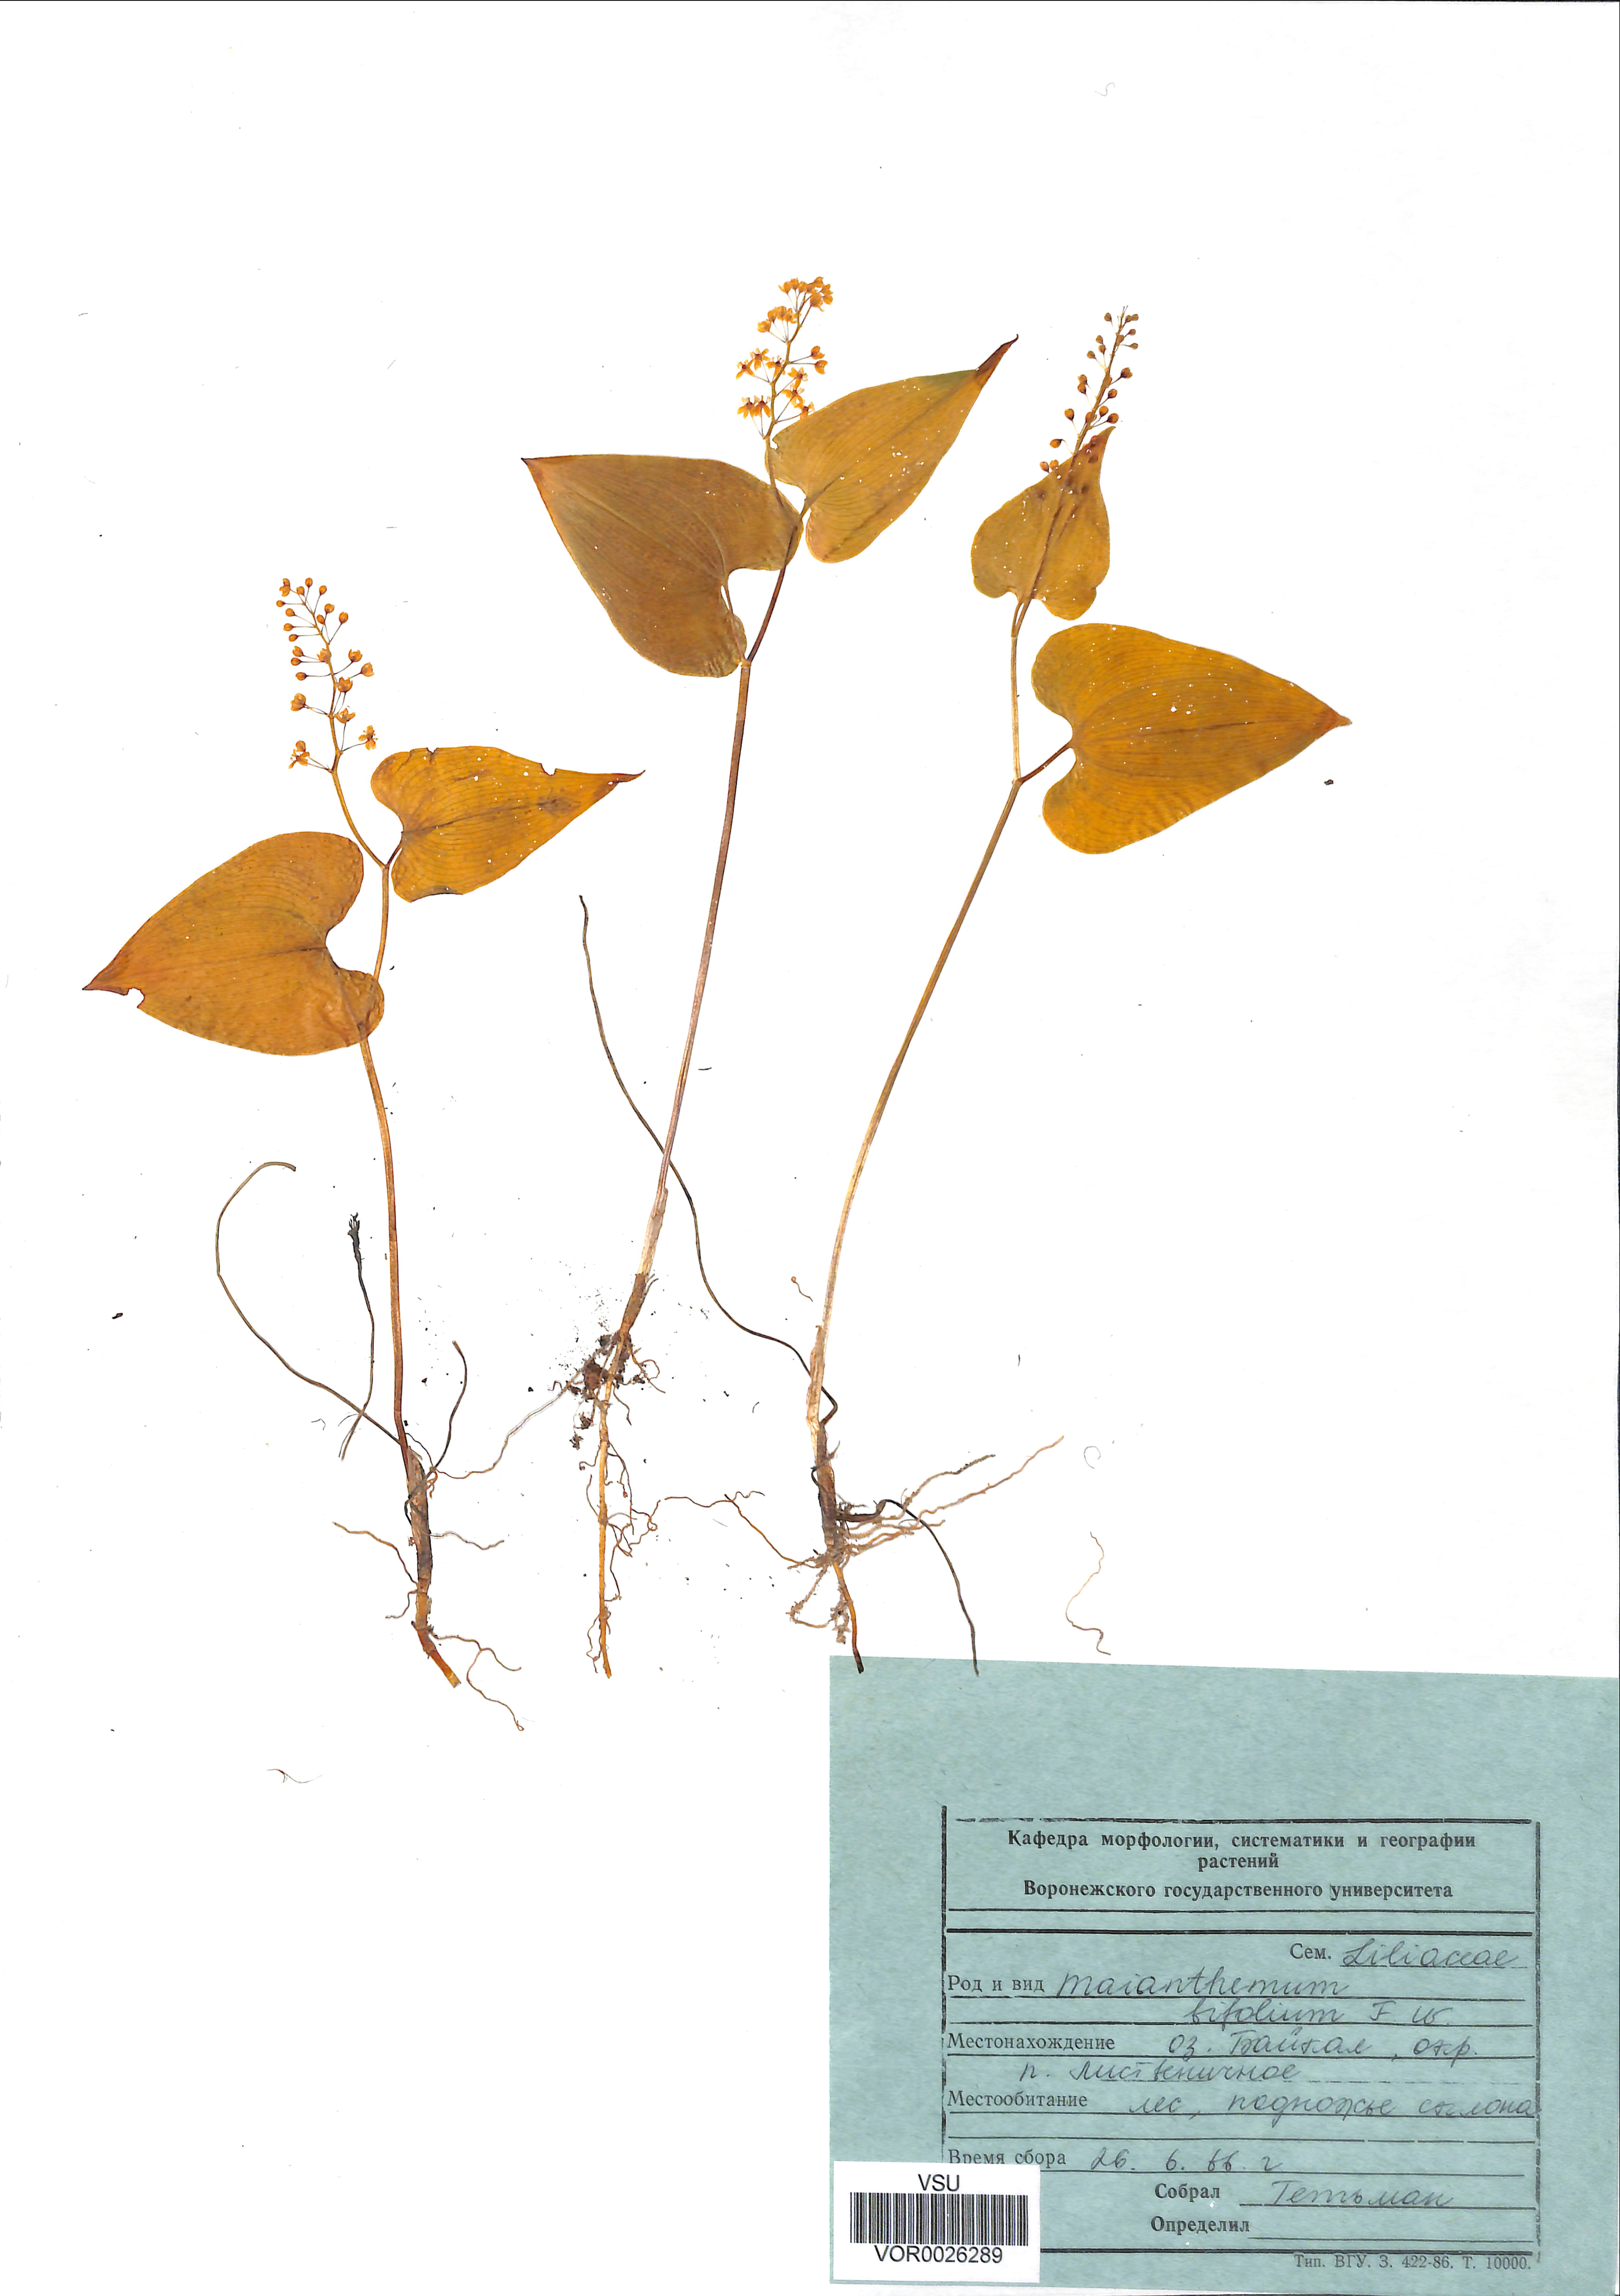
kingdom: Plantae
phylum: Tracheophyta
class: Liliopsida
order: Asparagales
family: Asparagaceae
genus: Maianthemum
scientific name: Maianthemum bifolium
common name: May lily
